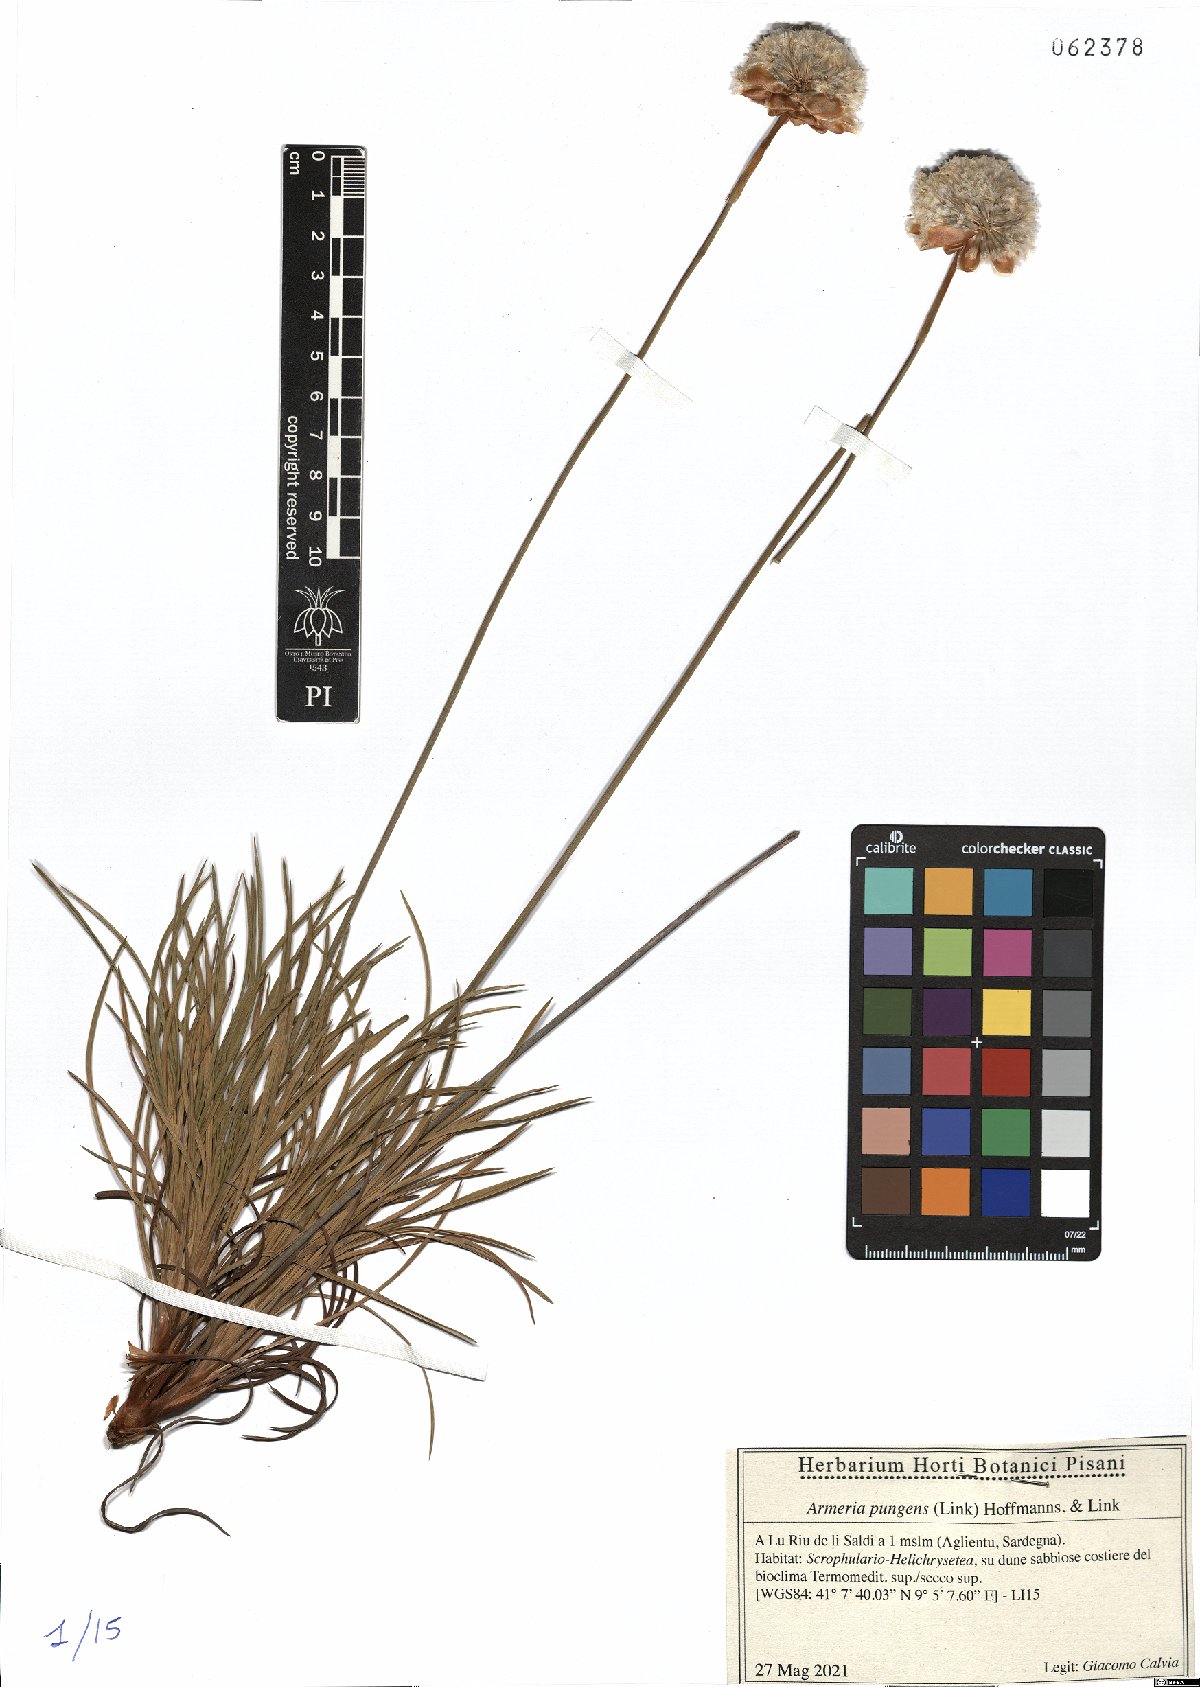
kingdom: Plantae
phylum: Tracheophyta
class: Magnoliopsida
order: Caryophyllales
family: Plumbaginaceae
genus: Armeria
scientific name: Armeria pungens
